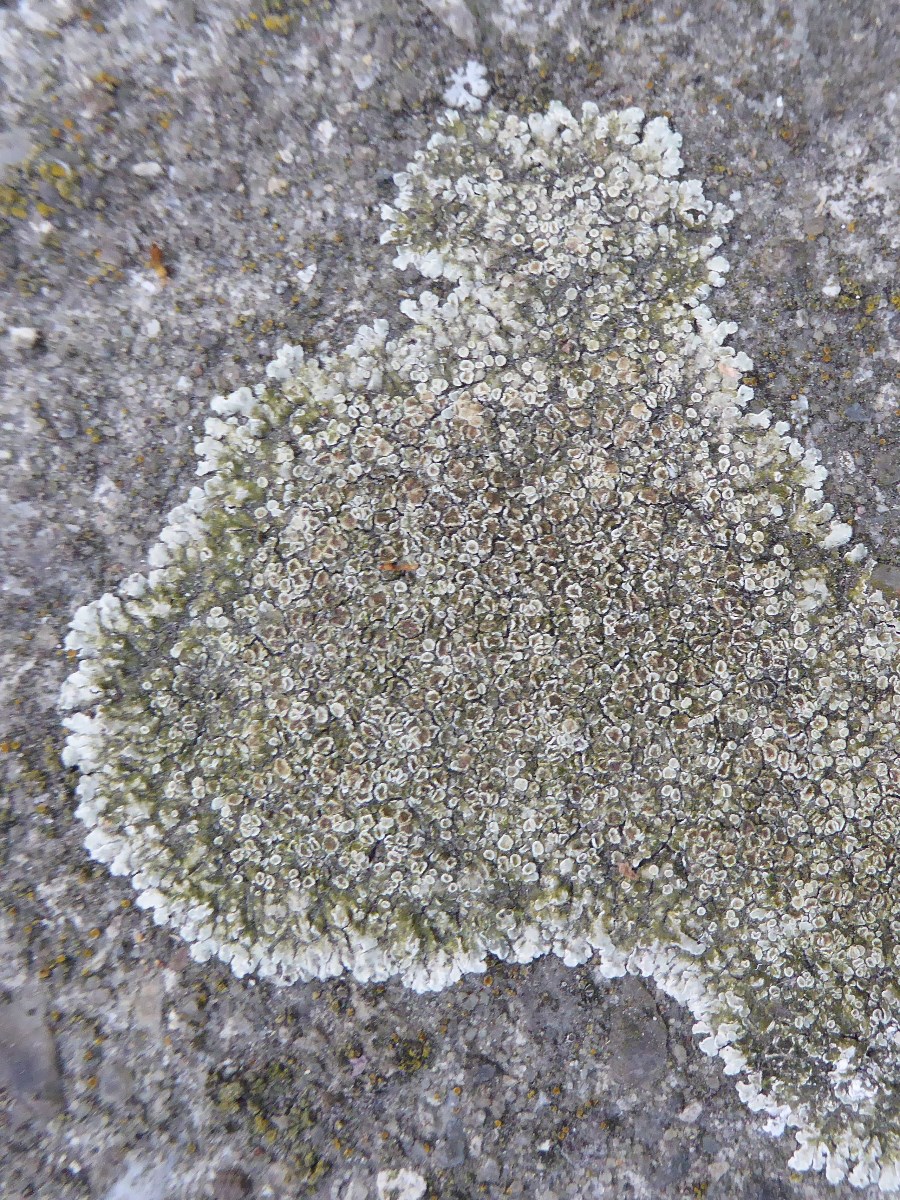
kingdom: Fungi
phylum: Ascomycota
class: Lecanoromycetes
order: Lecanorales
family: Lecanoraceae
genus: Protoparmeliopsis
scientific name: Protoparmeliopsis muralis
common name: randfliget kantskivelav
